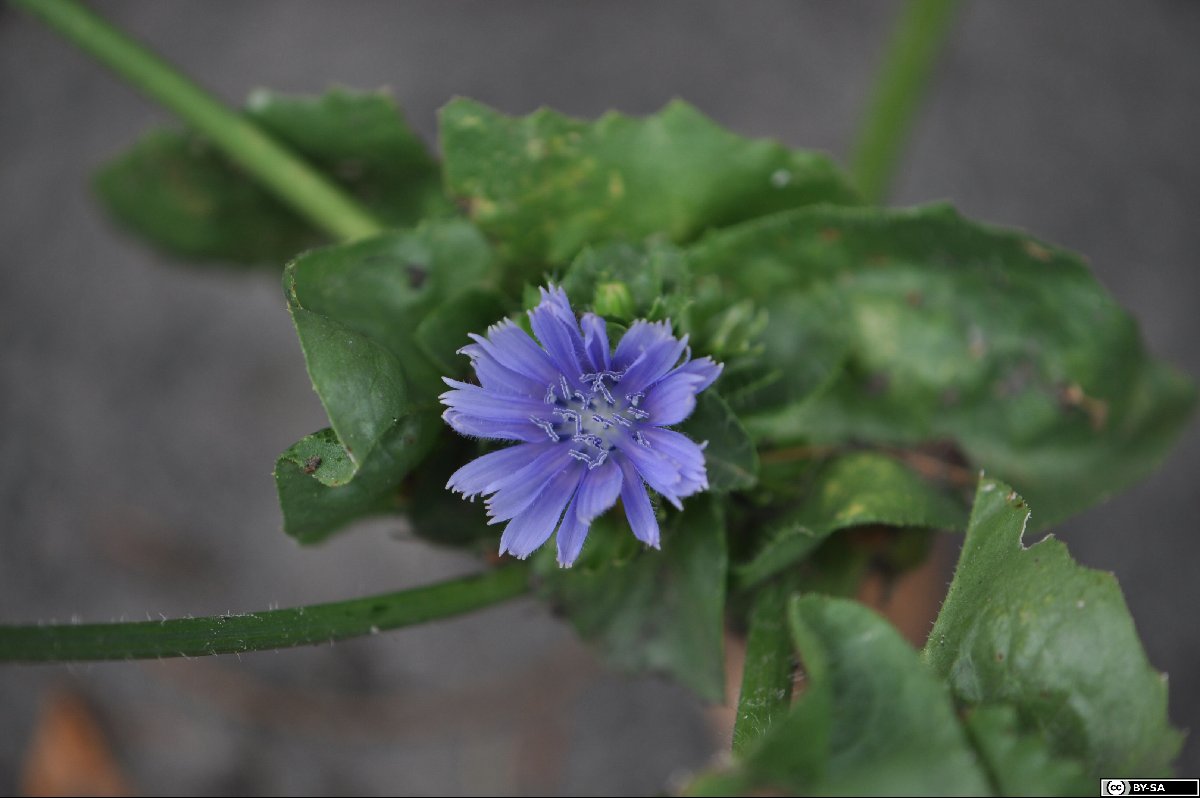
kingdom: Plantae
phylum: Tracheophyta
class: Magnoliopsida
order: Asterales
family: Asteraceae
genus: Cichorium
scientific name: Cichorium calvum
